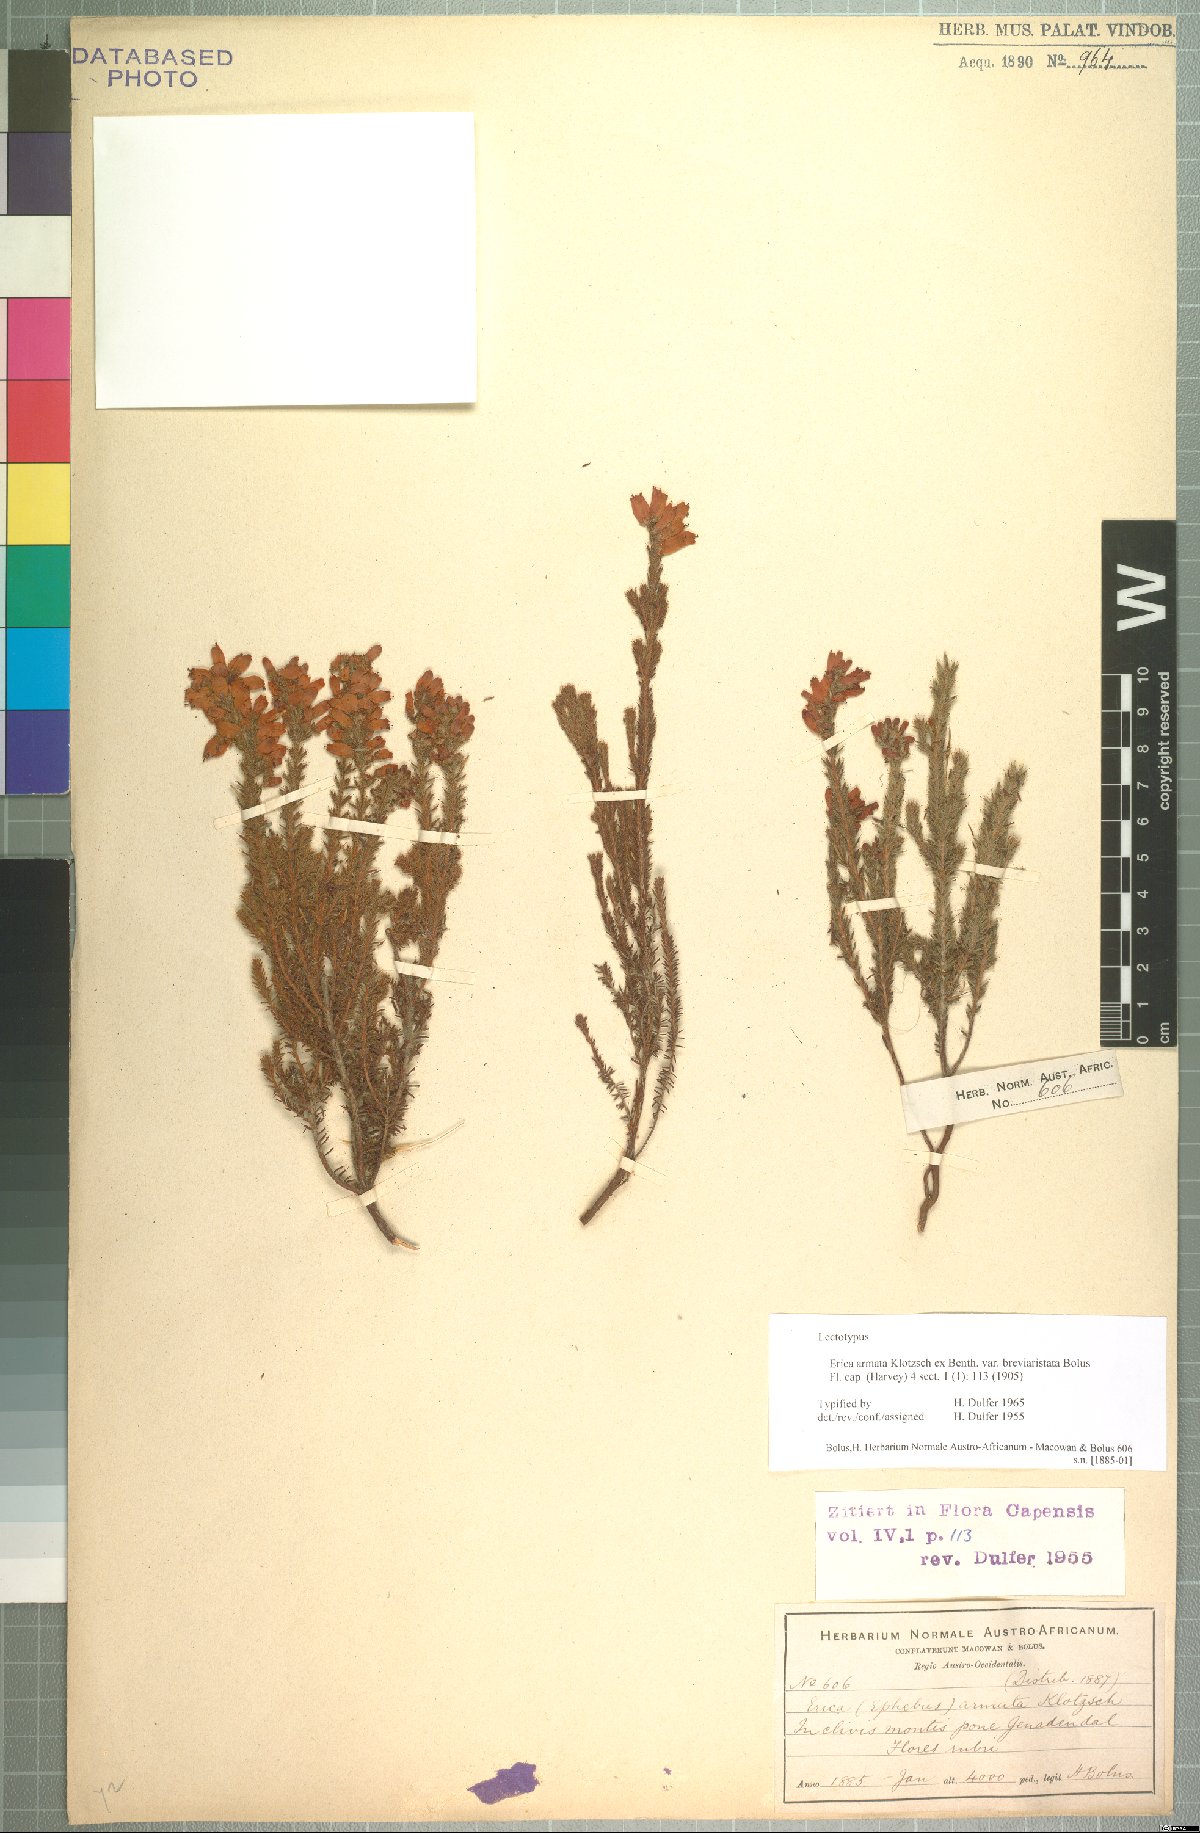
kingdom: Plantae
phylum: Tracheophyta
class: Magnoliopsida
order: Ericales
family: Ericaceae
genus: Erica
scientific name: Erica armata
